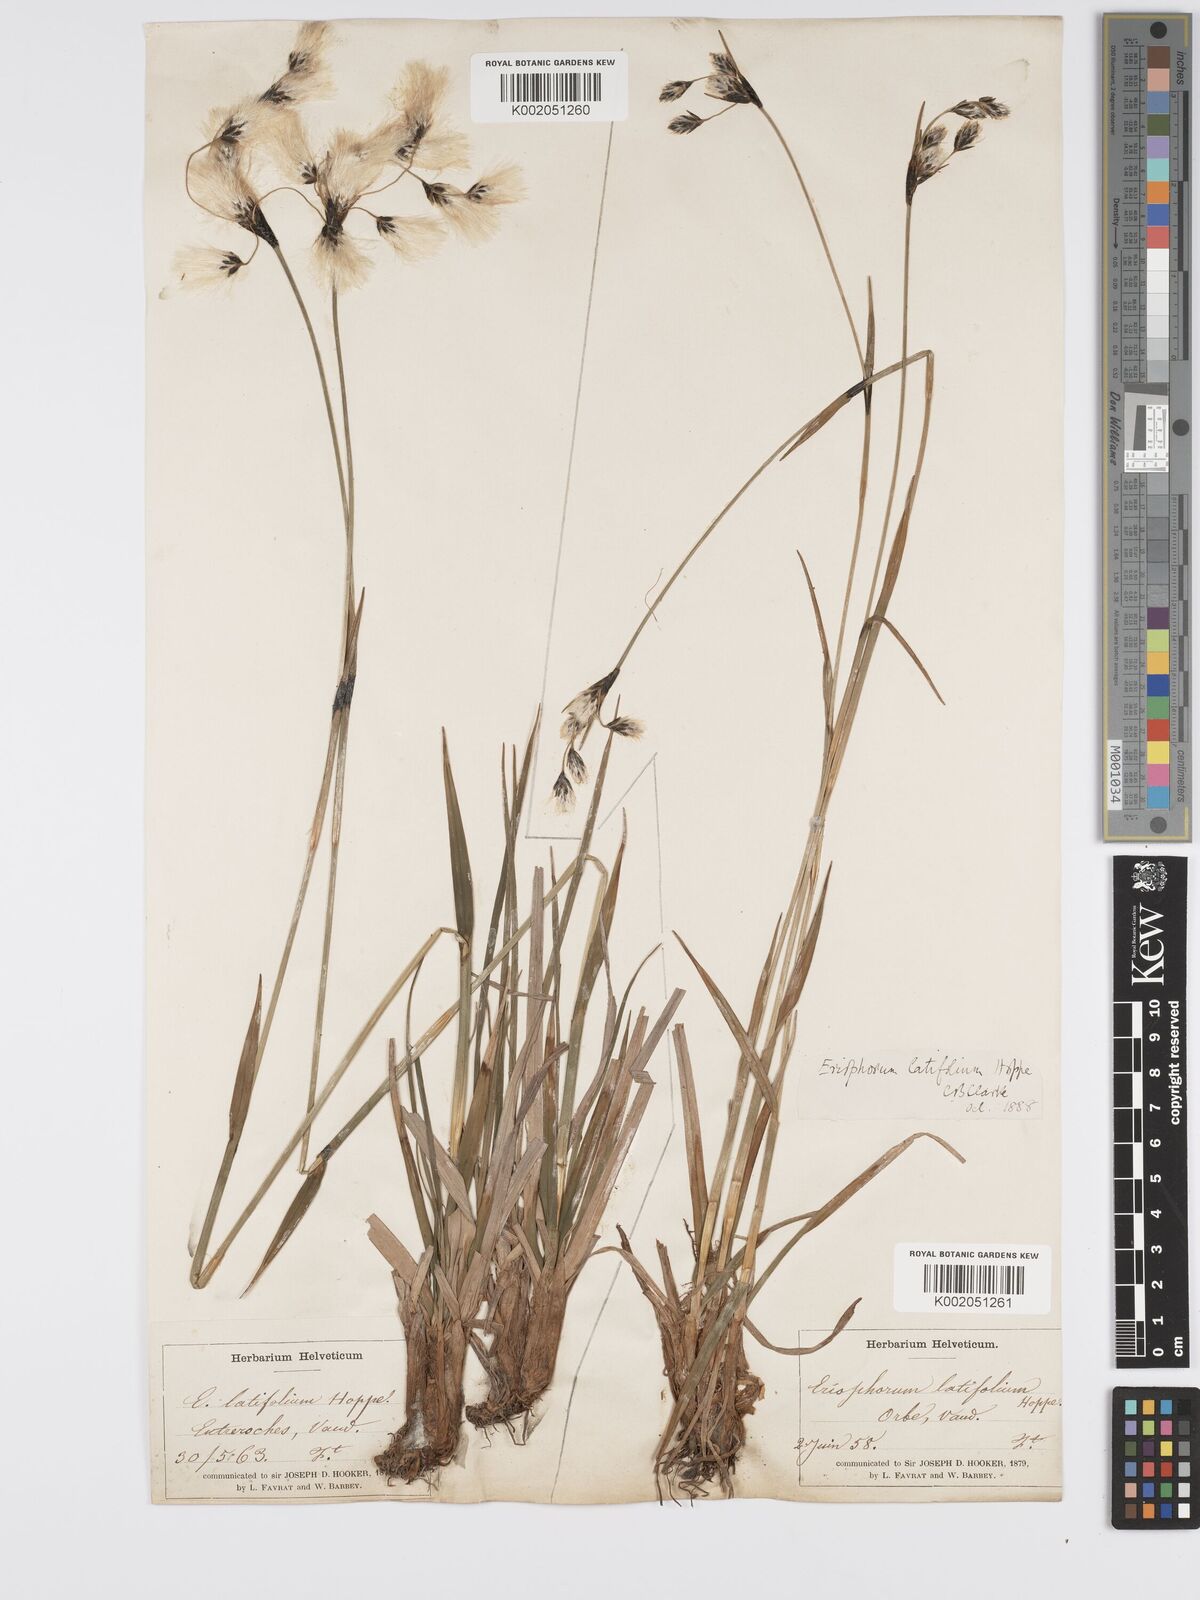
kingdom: Plantae
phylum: Tracheophyta
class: Liliopsida
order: Poales
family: Cyperaceae
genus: Eriophorum
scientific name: Eriophorum latifolium
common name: Broad-leaved cottongrass
